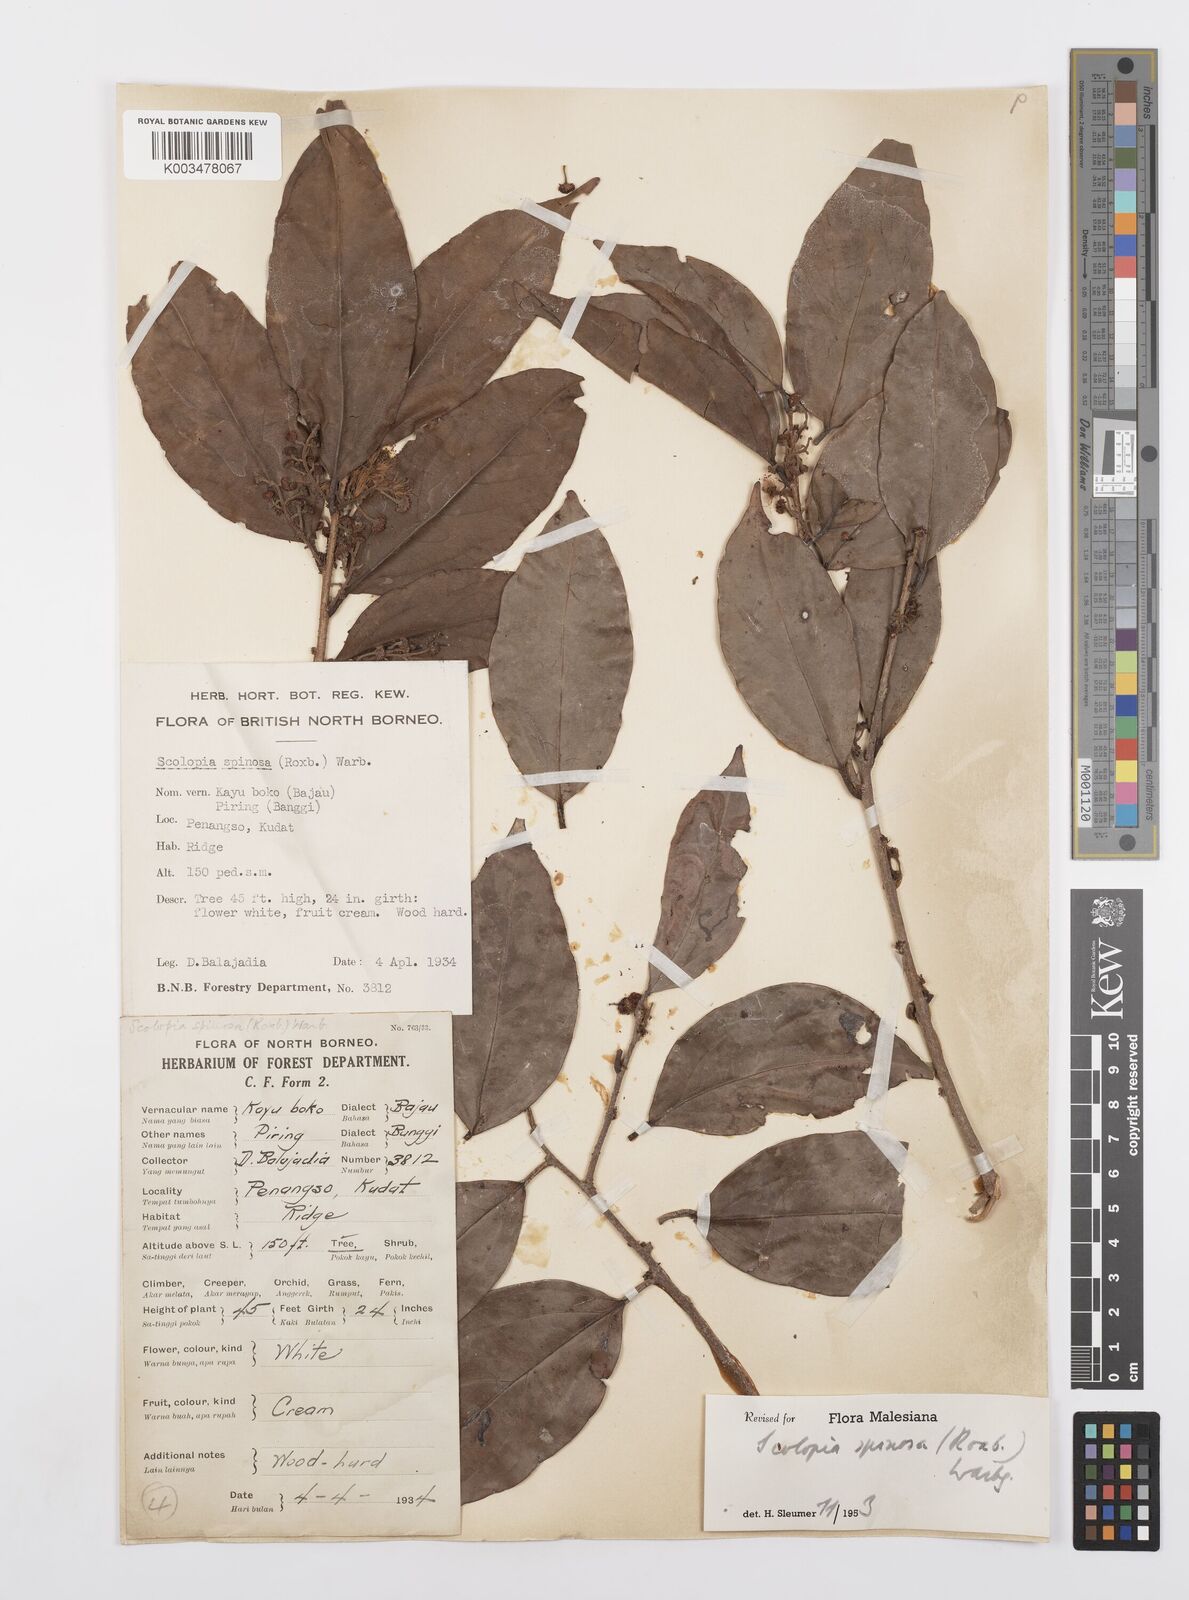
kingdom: Plantae
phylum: Tracheophyta
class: Magnoliopsida
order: Malpighiales
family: Salicaceae
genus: Scolopia
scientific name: Scolopia spinosa
